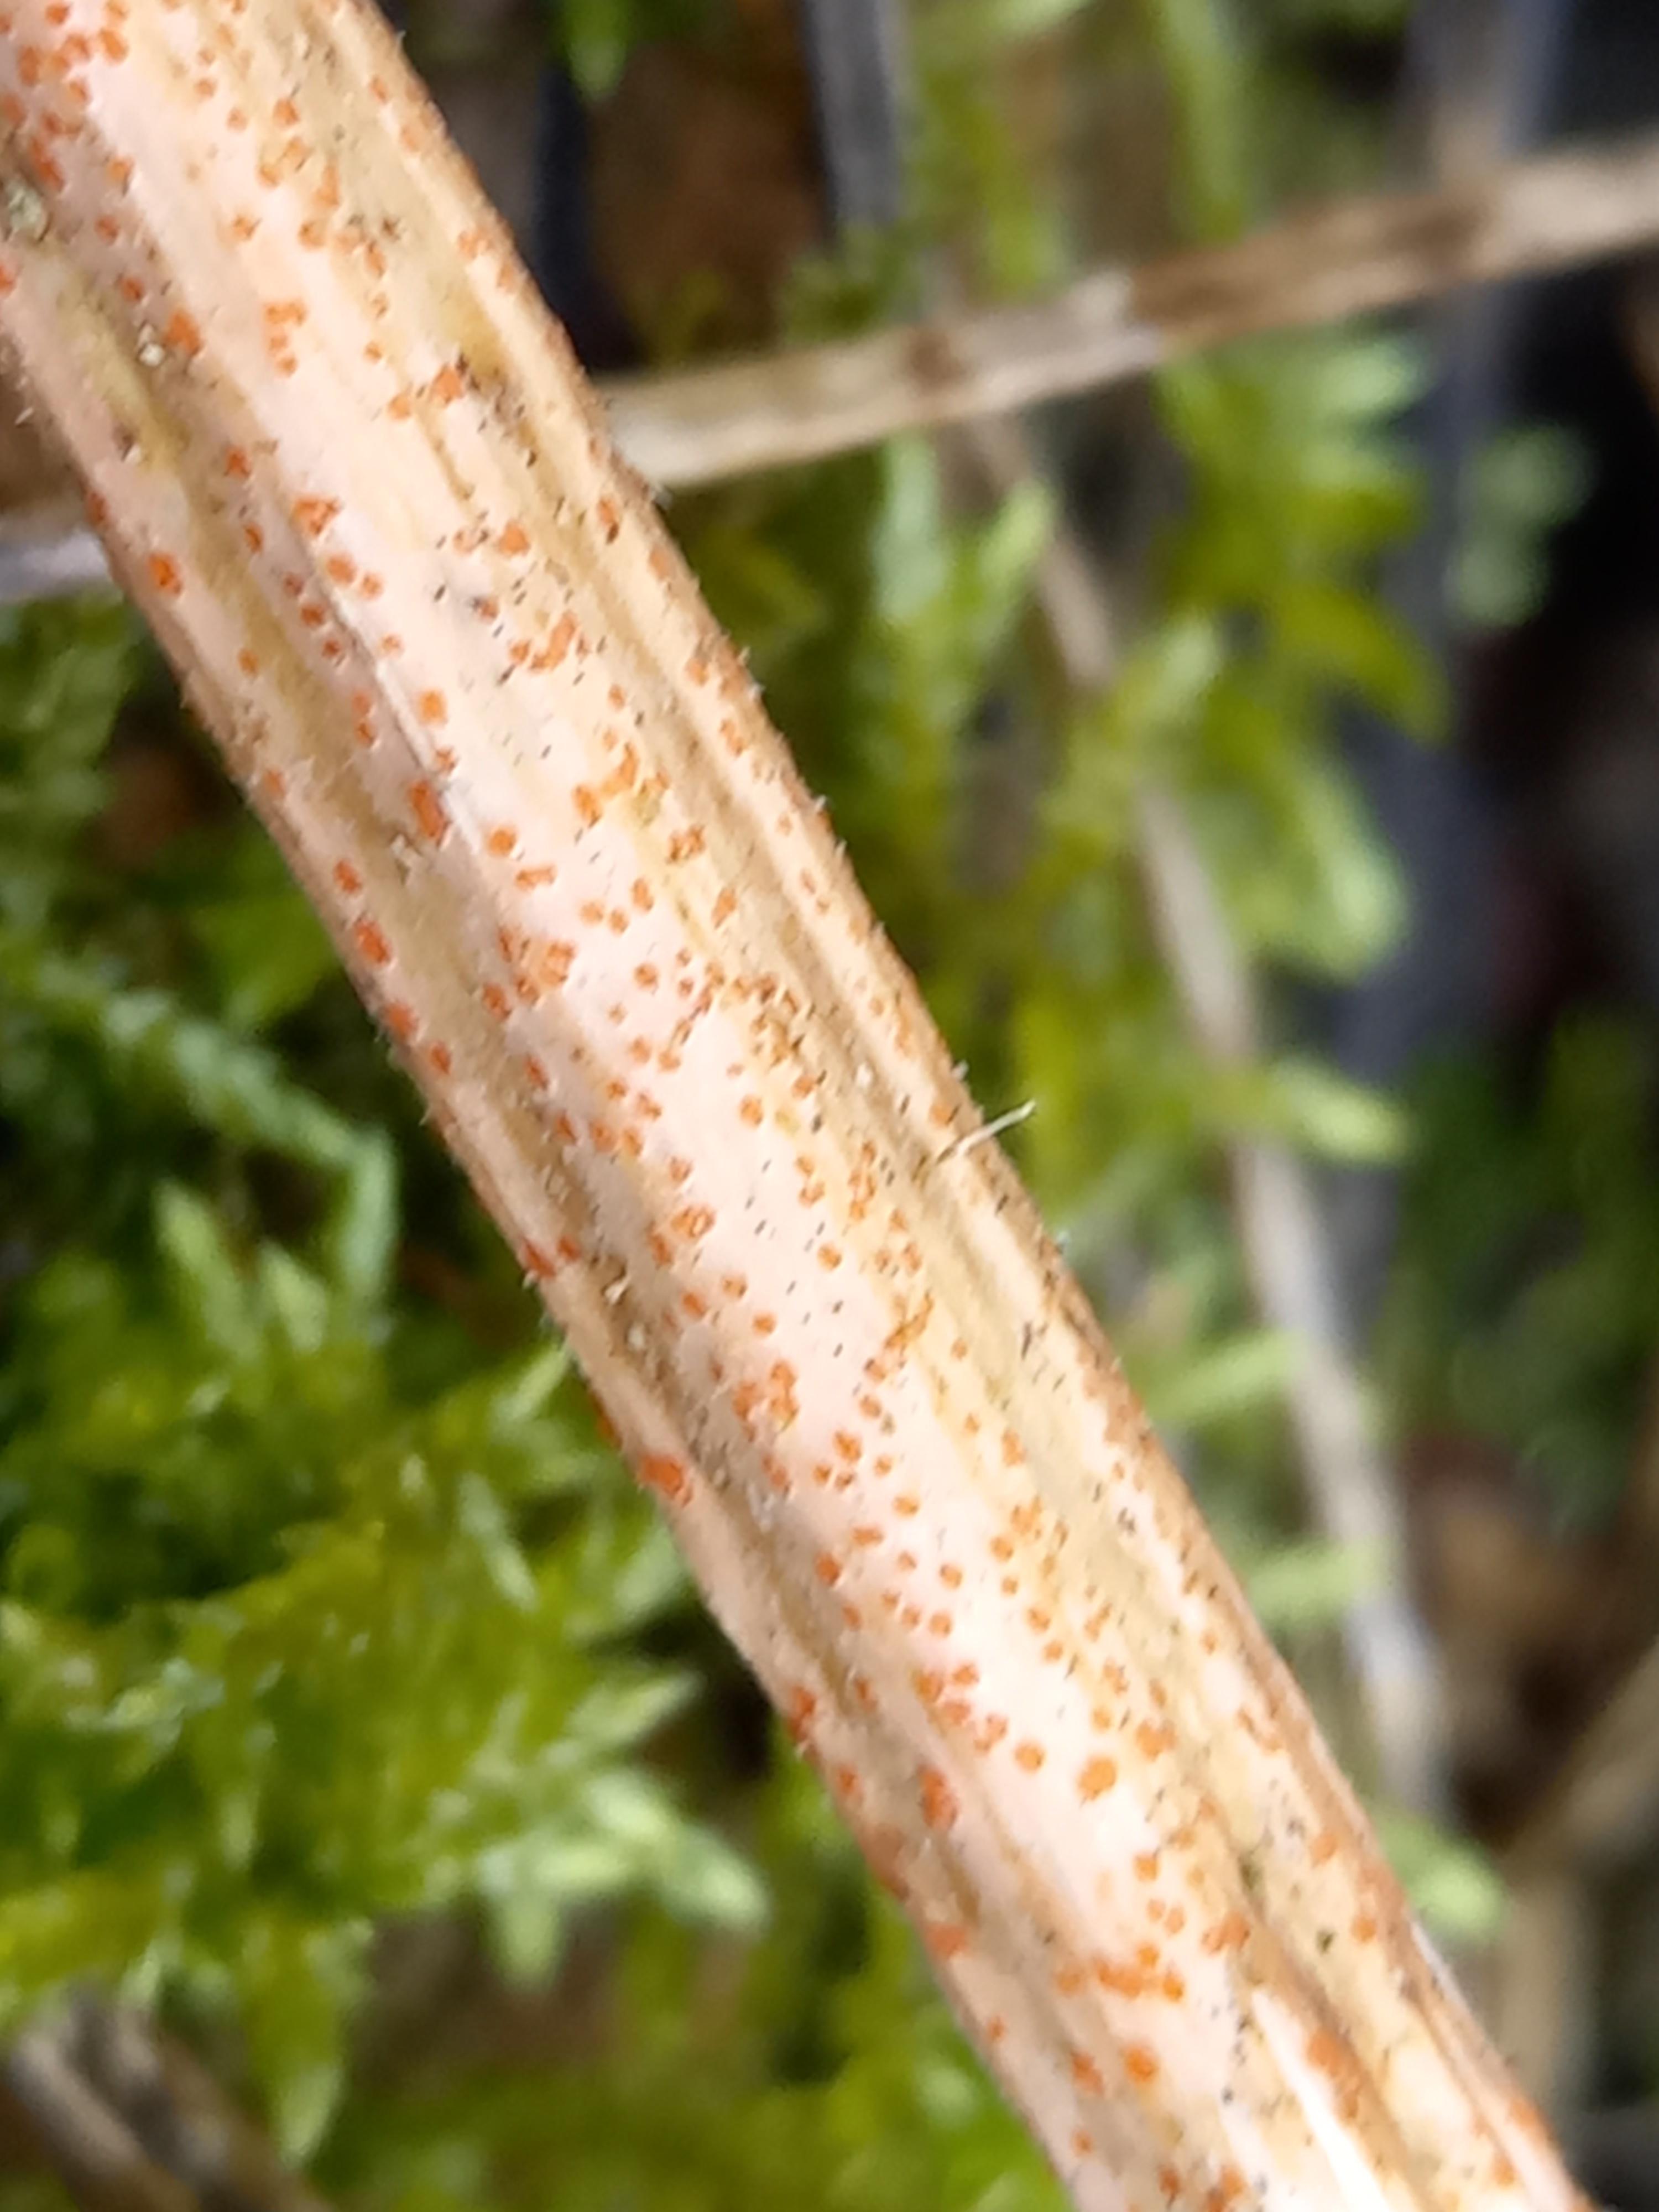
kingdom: Fungi
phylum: Ascomycota
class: Leotiomycetes
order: Helotiales
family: Calloriaceae
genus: Calloria
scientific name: Calloria urticae
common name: nælde-orangeskive
